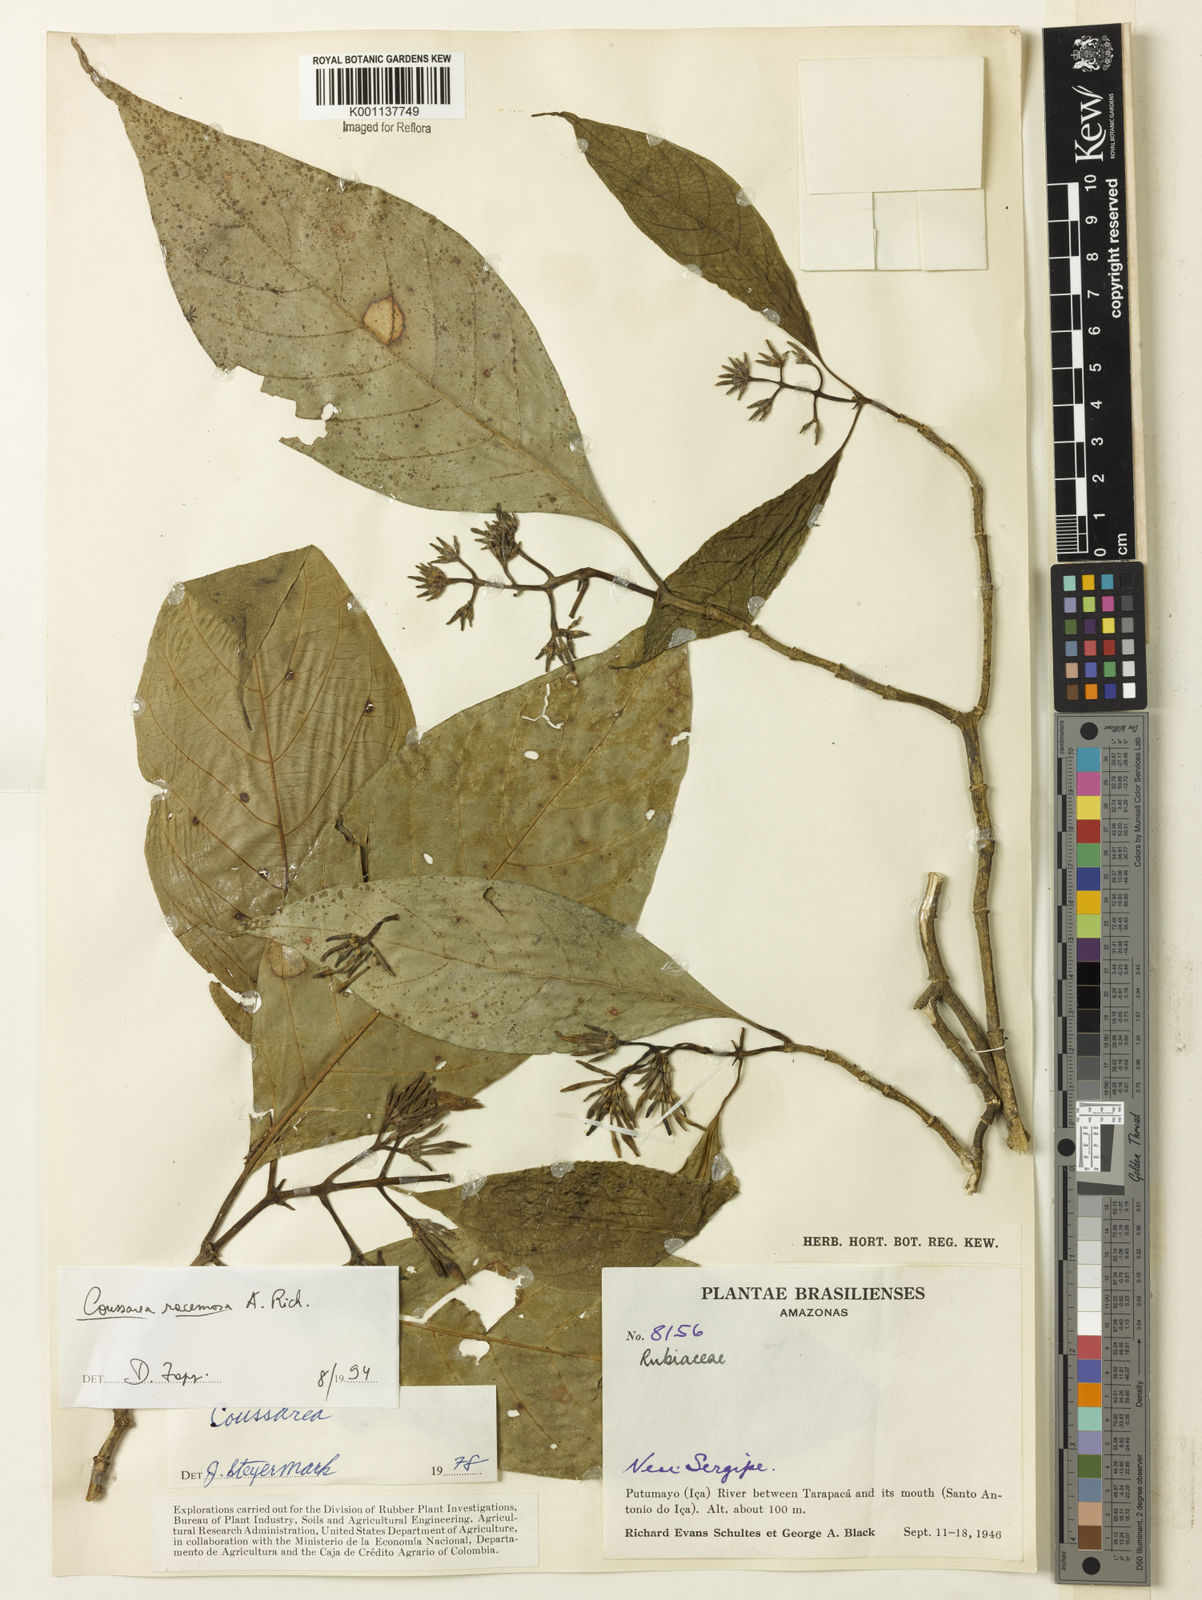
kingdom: Plantae
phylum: Tracheophyta
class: Magnoliopsida
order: Gentianales
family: Rubiaceae
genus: Coussarea
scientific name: Coussarea
